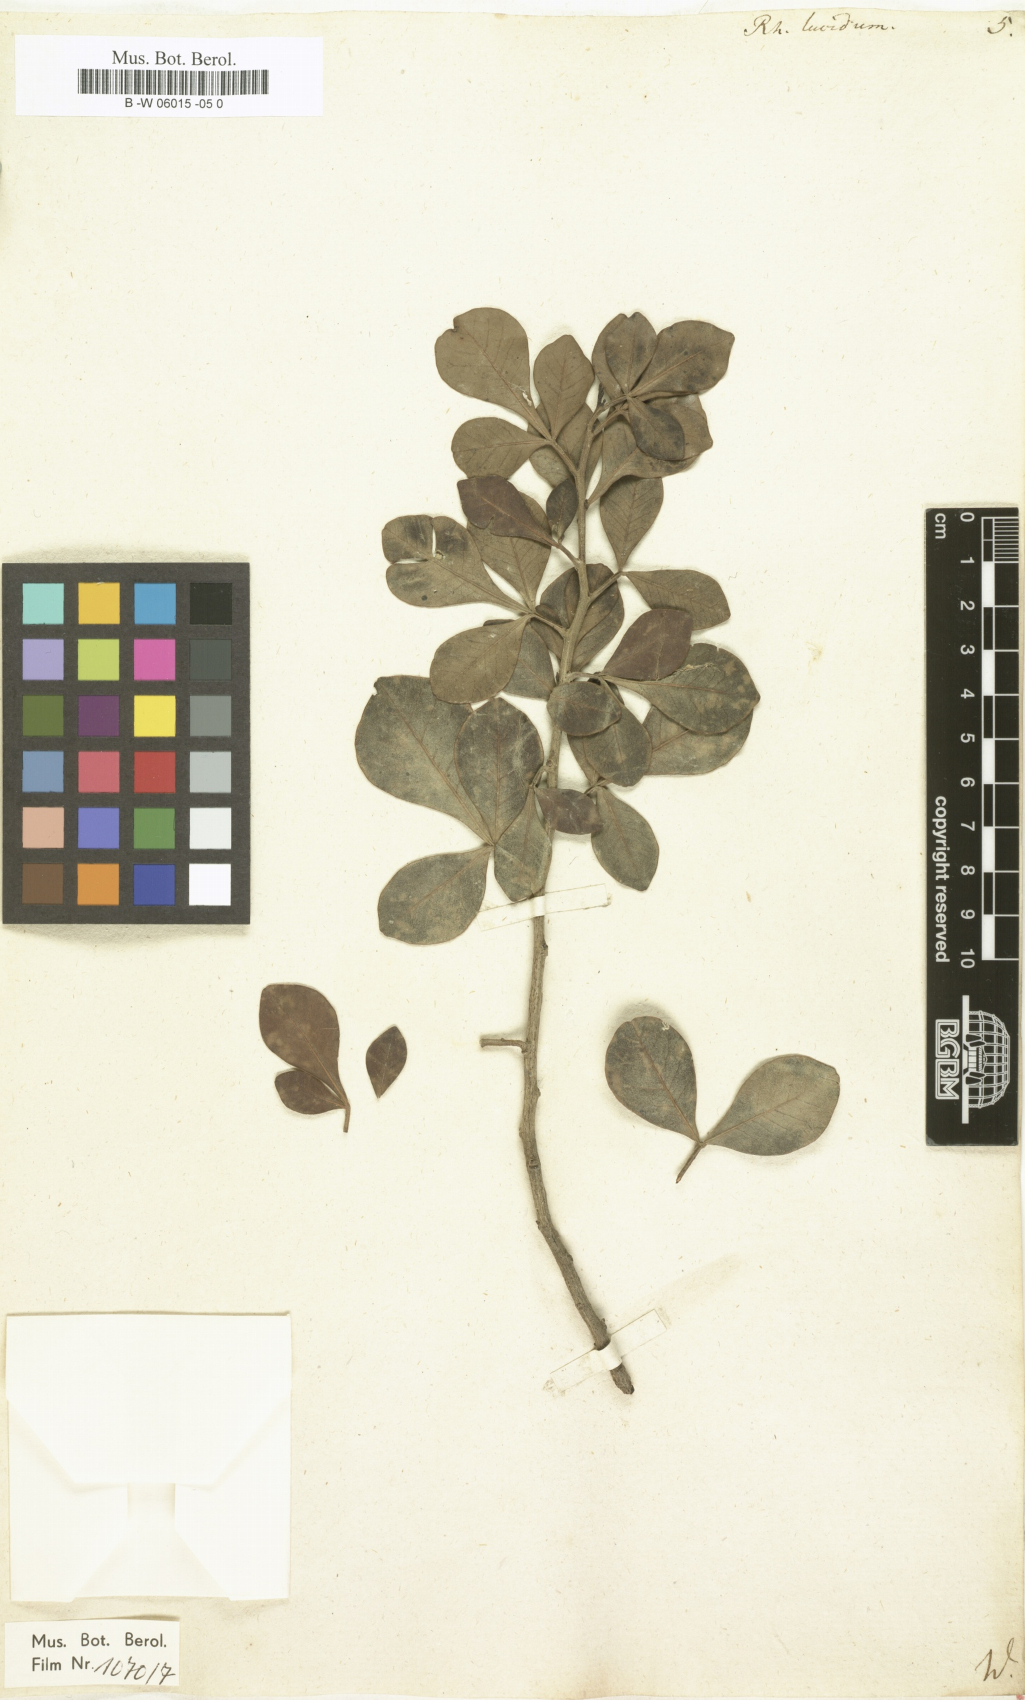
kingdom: Plantae
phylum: Tracheophyta
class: Magnoliopsida
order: Sapindales
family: Anacardiaceae
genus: Searsia
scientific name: Searsia
